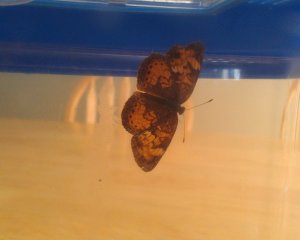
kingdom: Animalia
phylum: Arthropoda
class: Insecta
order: Lepidoptera
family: Nymphalidae
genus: Phyciodes
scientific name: Phyciodes tharos
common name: Northern Crescent
